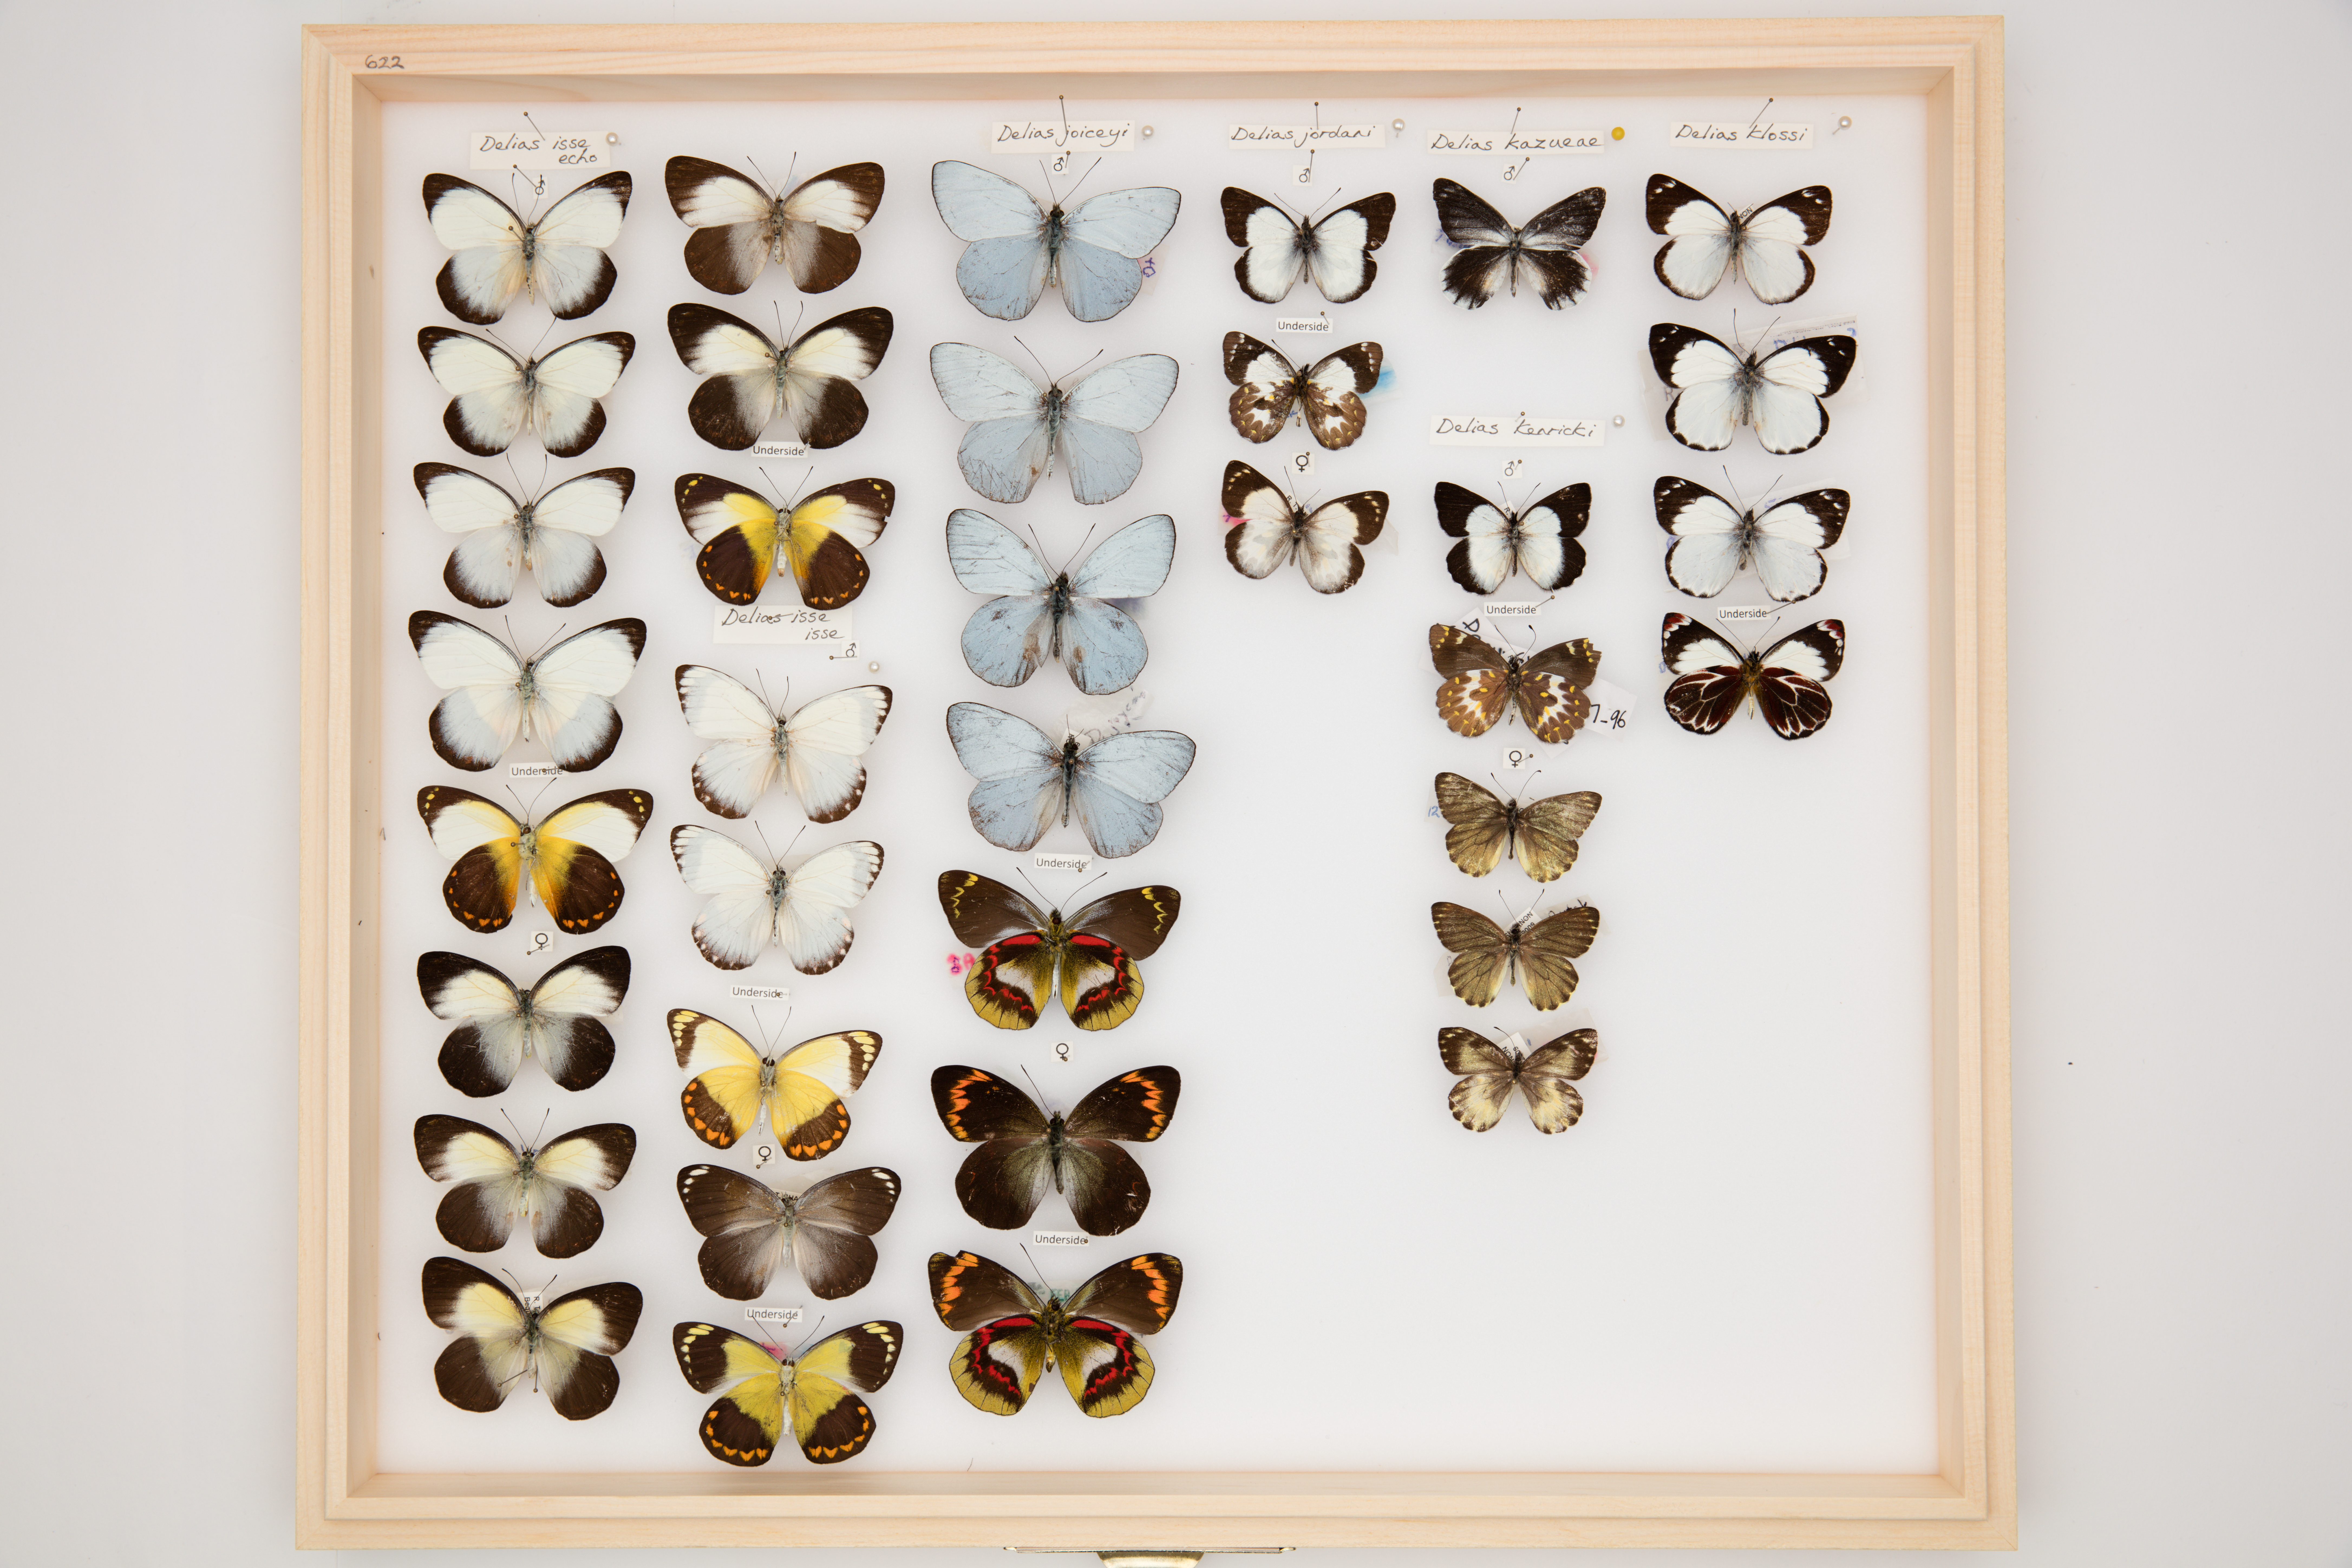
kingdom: Animalia
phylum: Arthropoda
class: Insecta
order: Lepidoptera
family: Pieridae
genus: Delias
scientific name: Delias isse
